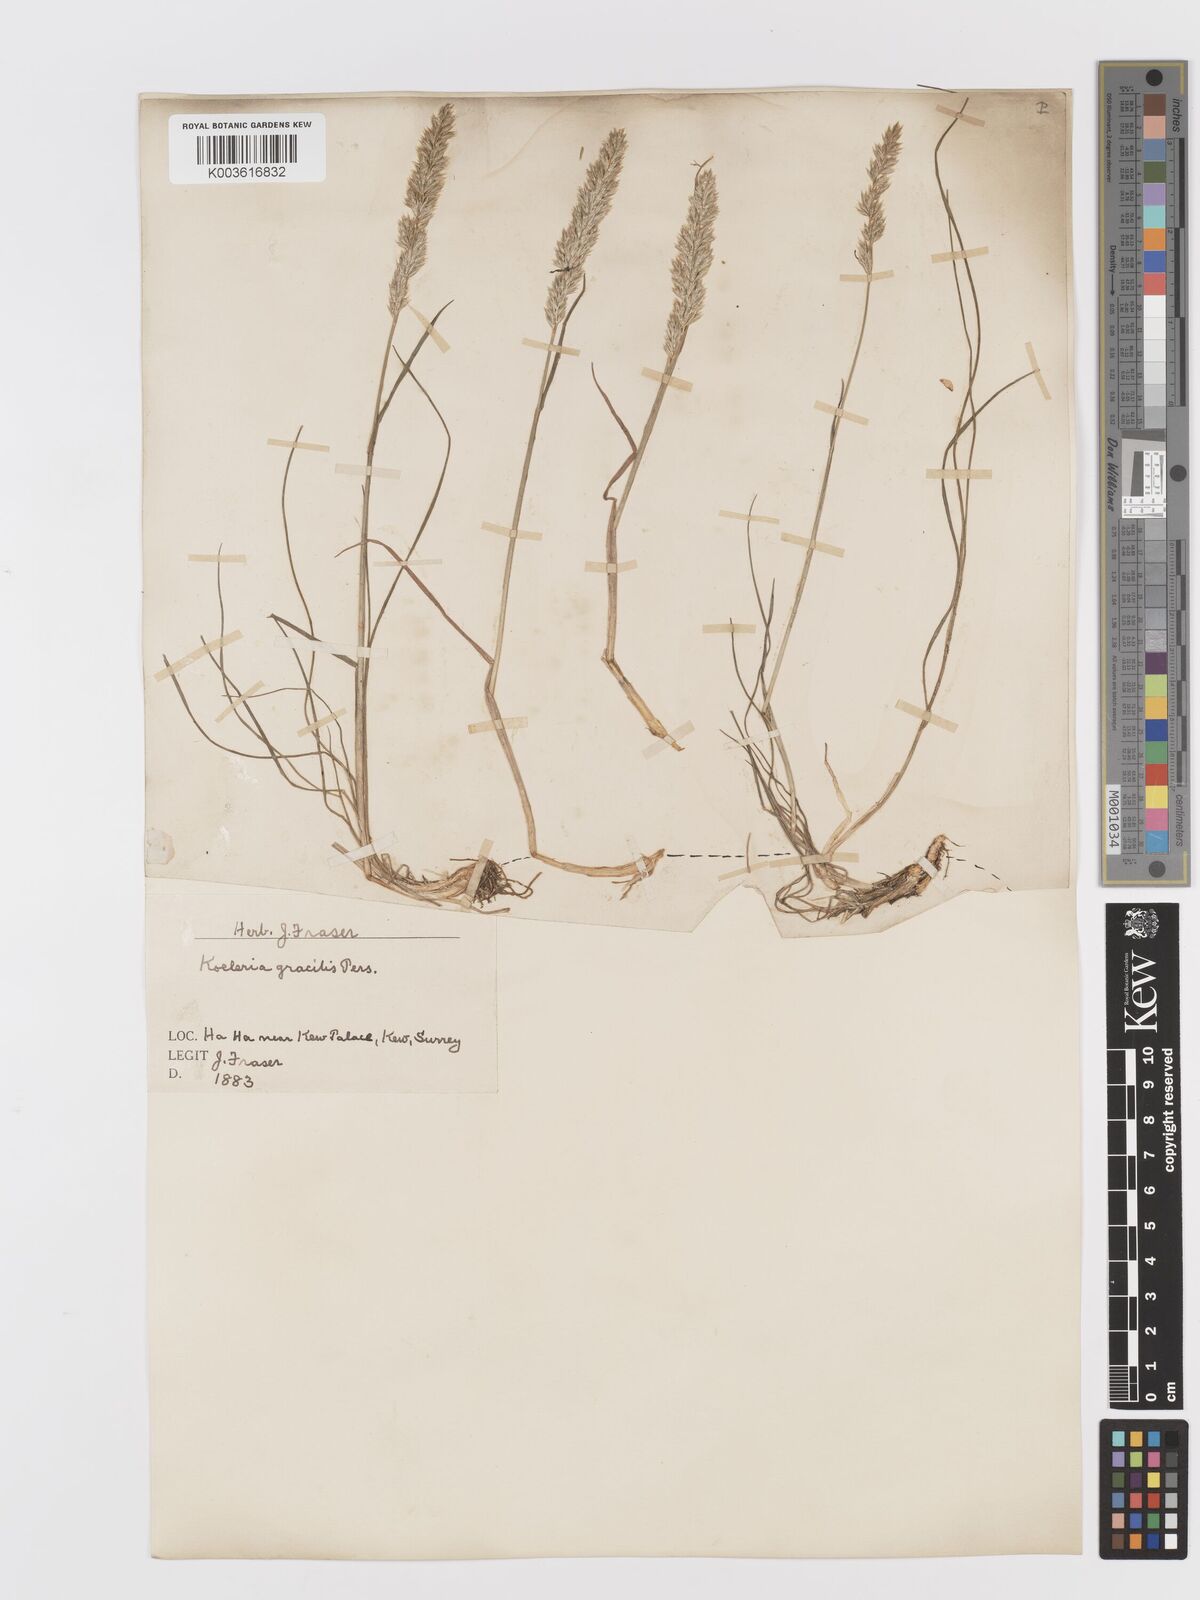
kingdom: Plantae
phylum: Tracheophyta
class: Liliopsida
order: Poales
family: Poaceae
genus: Koeleria
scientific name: Koeleria macrantha
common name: Crested hair-grass
